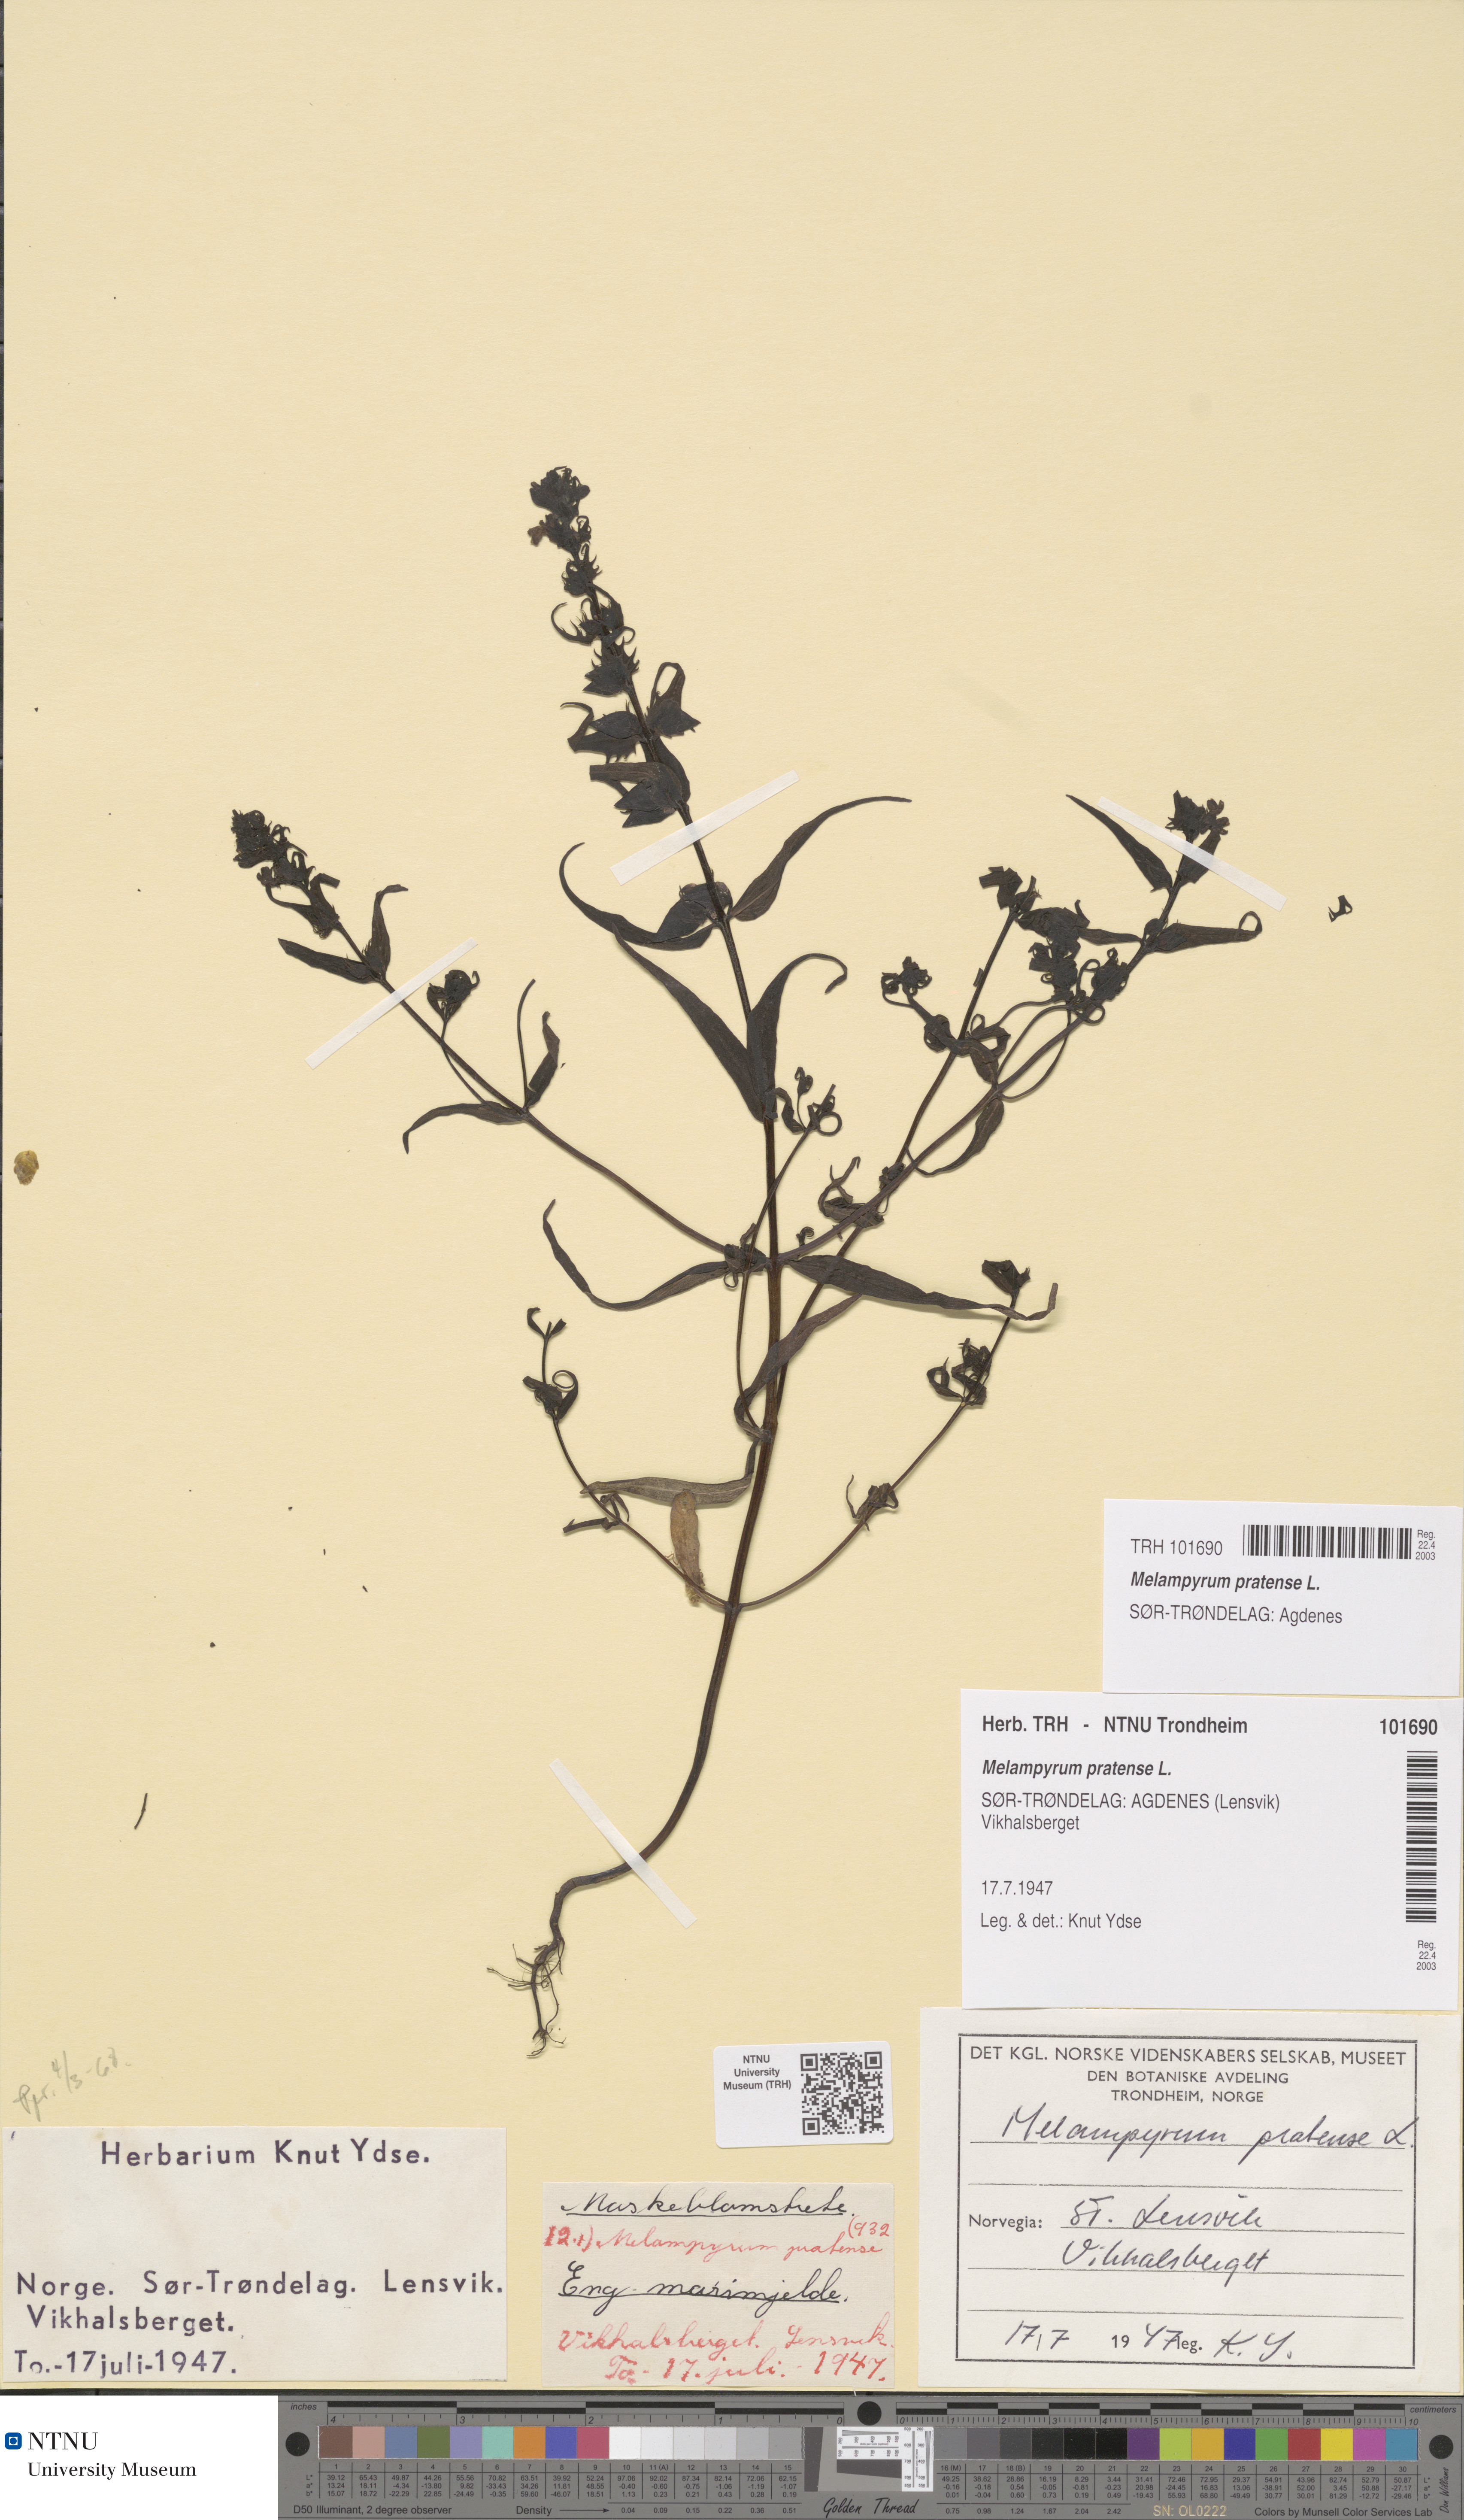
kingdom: Plantae
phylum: Tracheophyta
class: Magnoliopsida
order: Lamiales
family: Orobanchaceae
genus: Melampyrum
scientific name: Melampyrum pratense
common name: Common cow-wheat
